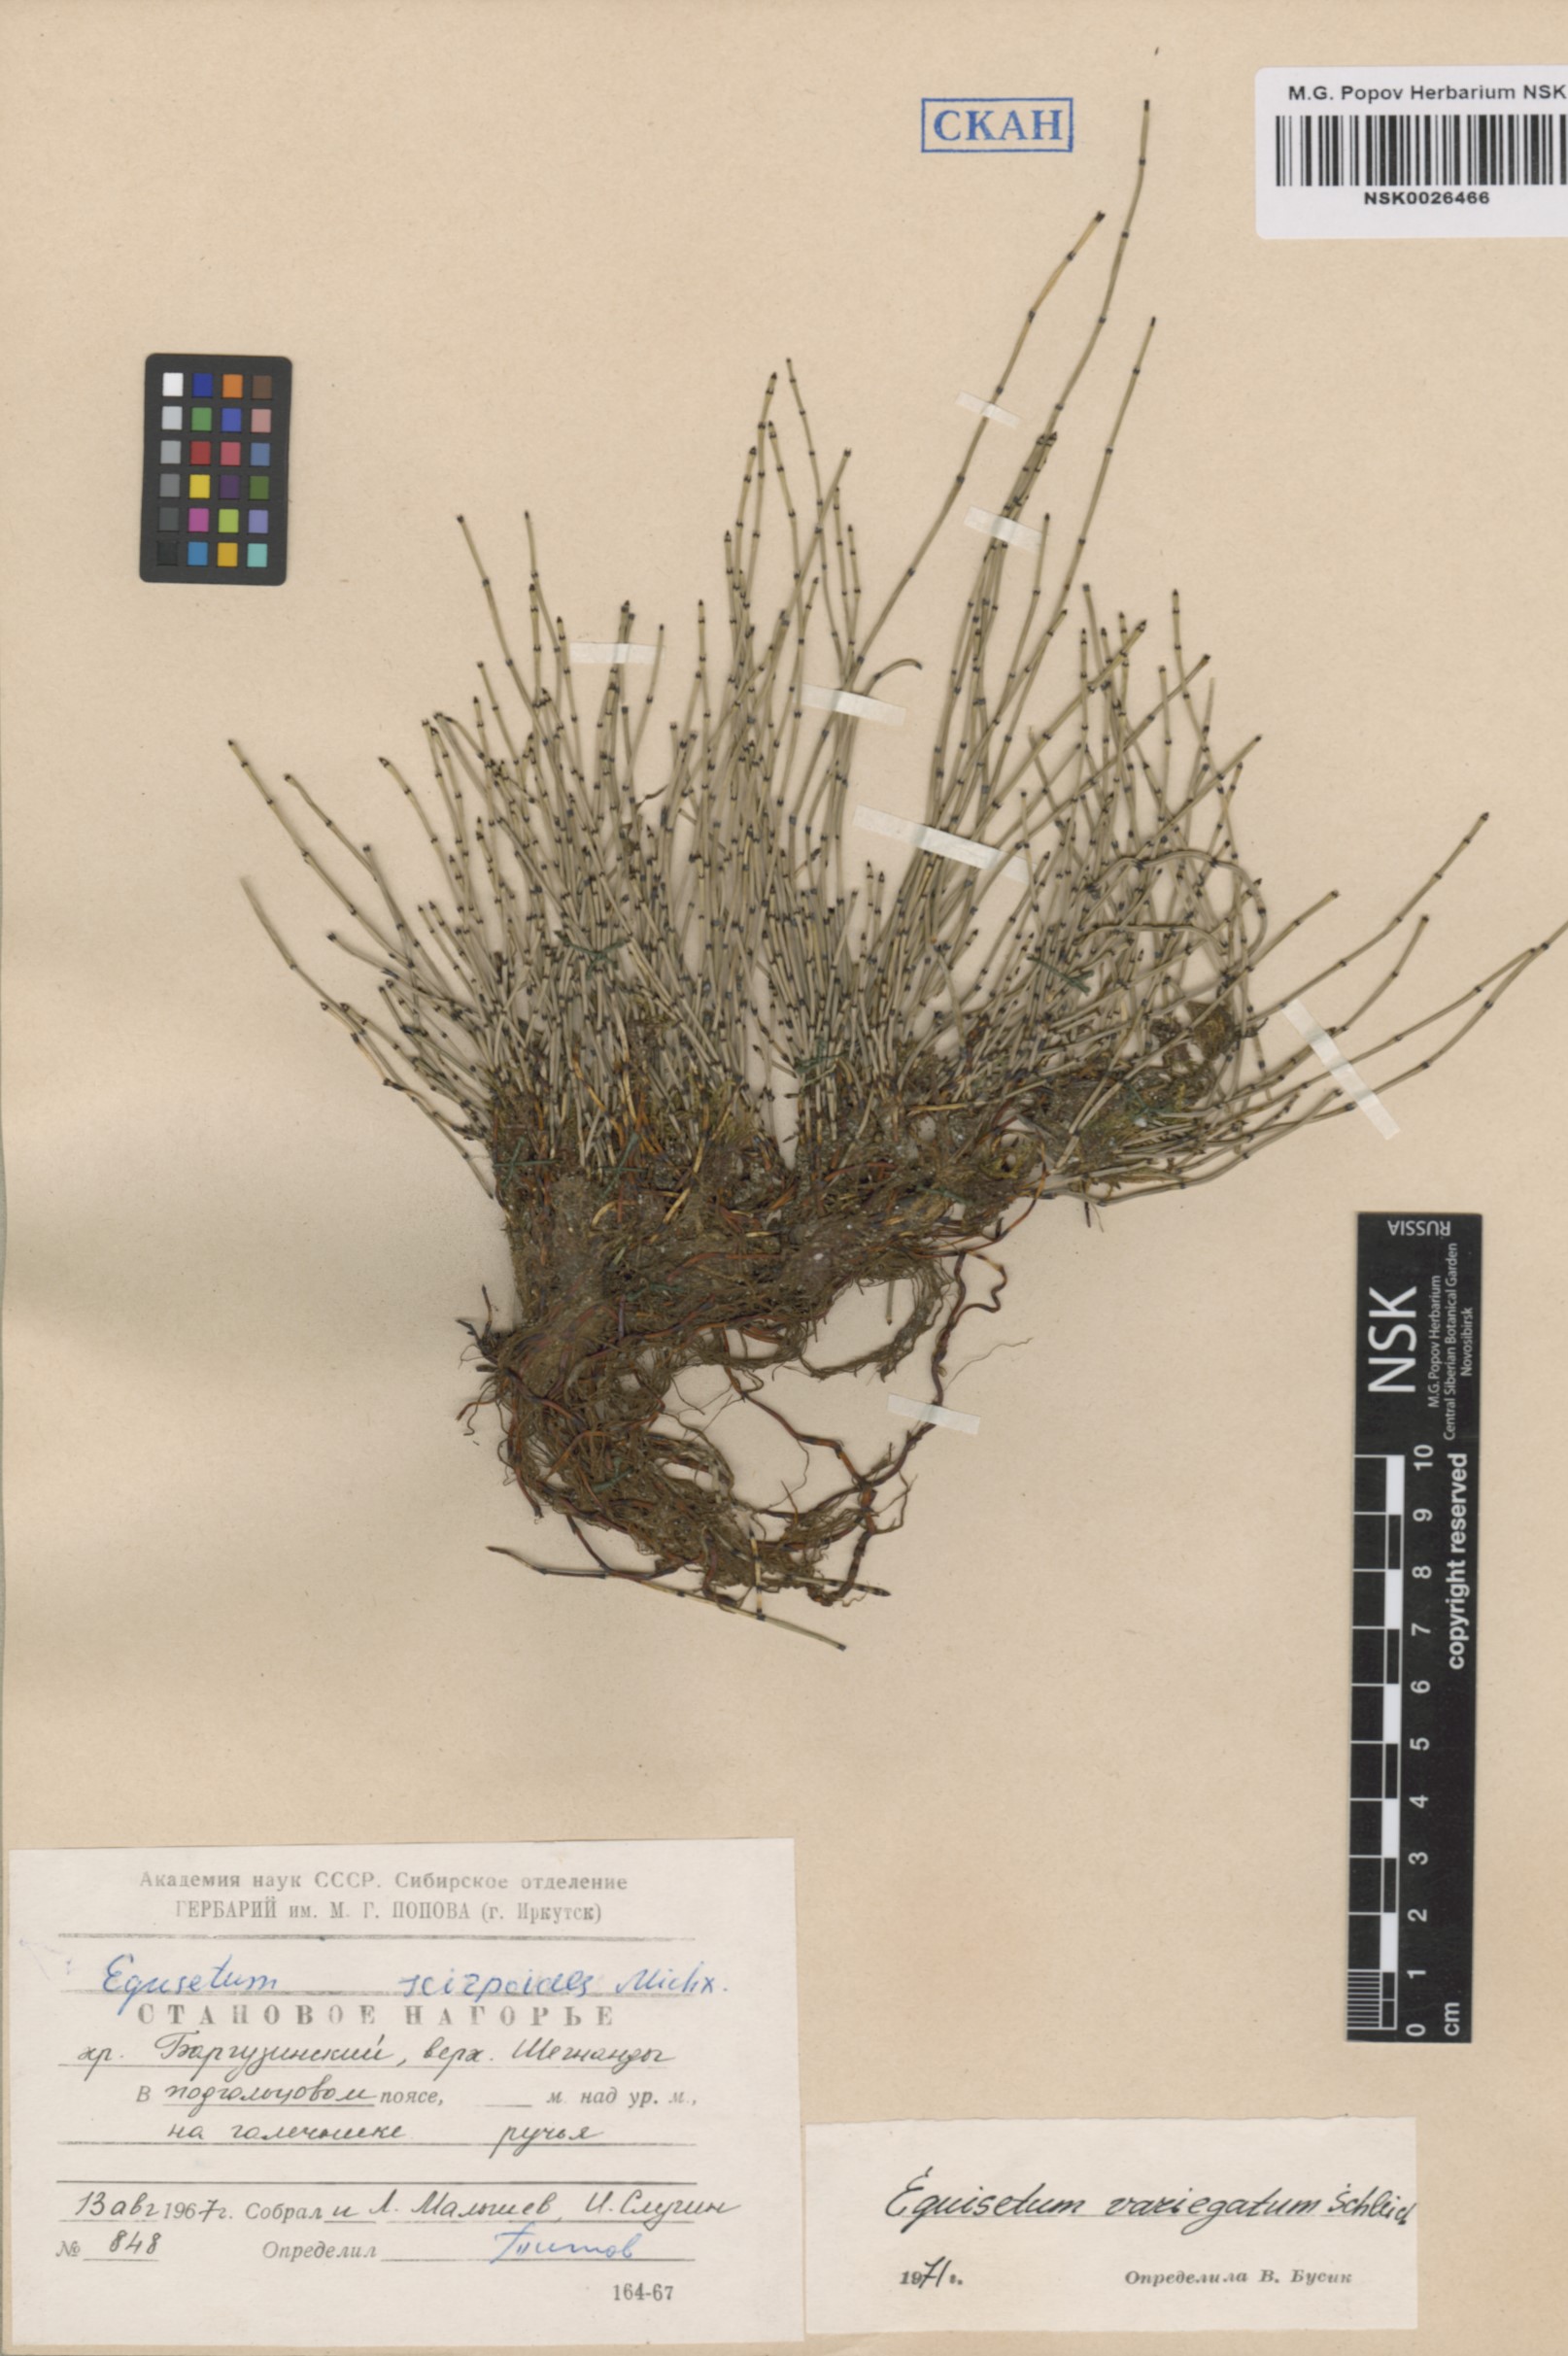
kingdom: Plantae
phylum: Tracheophyta
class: Polypodiopsida
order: Equisetales
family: Equisetaceae
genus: Equisetum
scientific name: Equisetum variegatum
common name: Variegated horsetail
